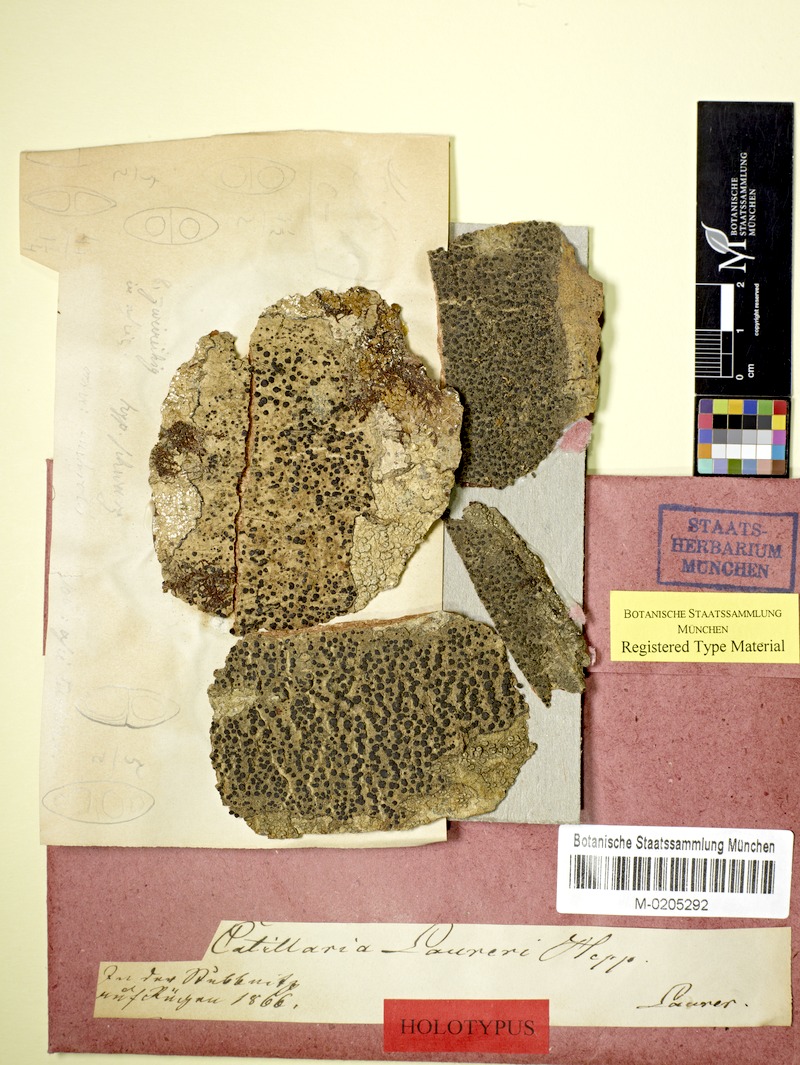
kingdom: Fungi
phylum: Ascomycota
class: Lecanoromycetes
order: Lecanorales
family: Ramalinaceae
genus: Megalaria
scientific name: Megalaria laureri
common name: Laurer's catillaria
